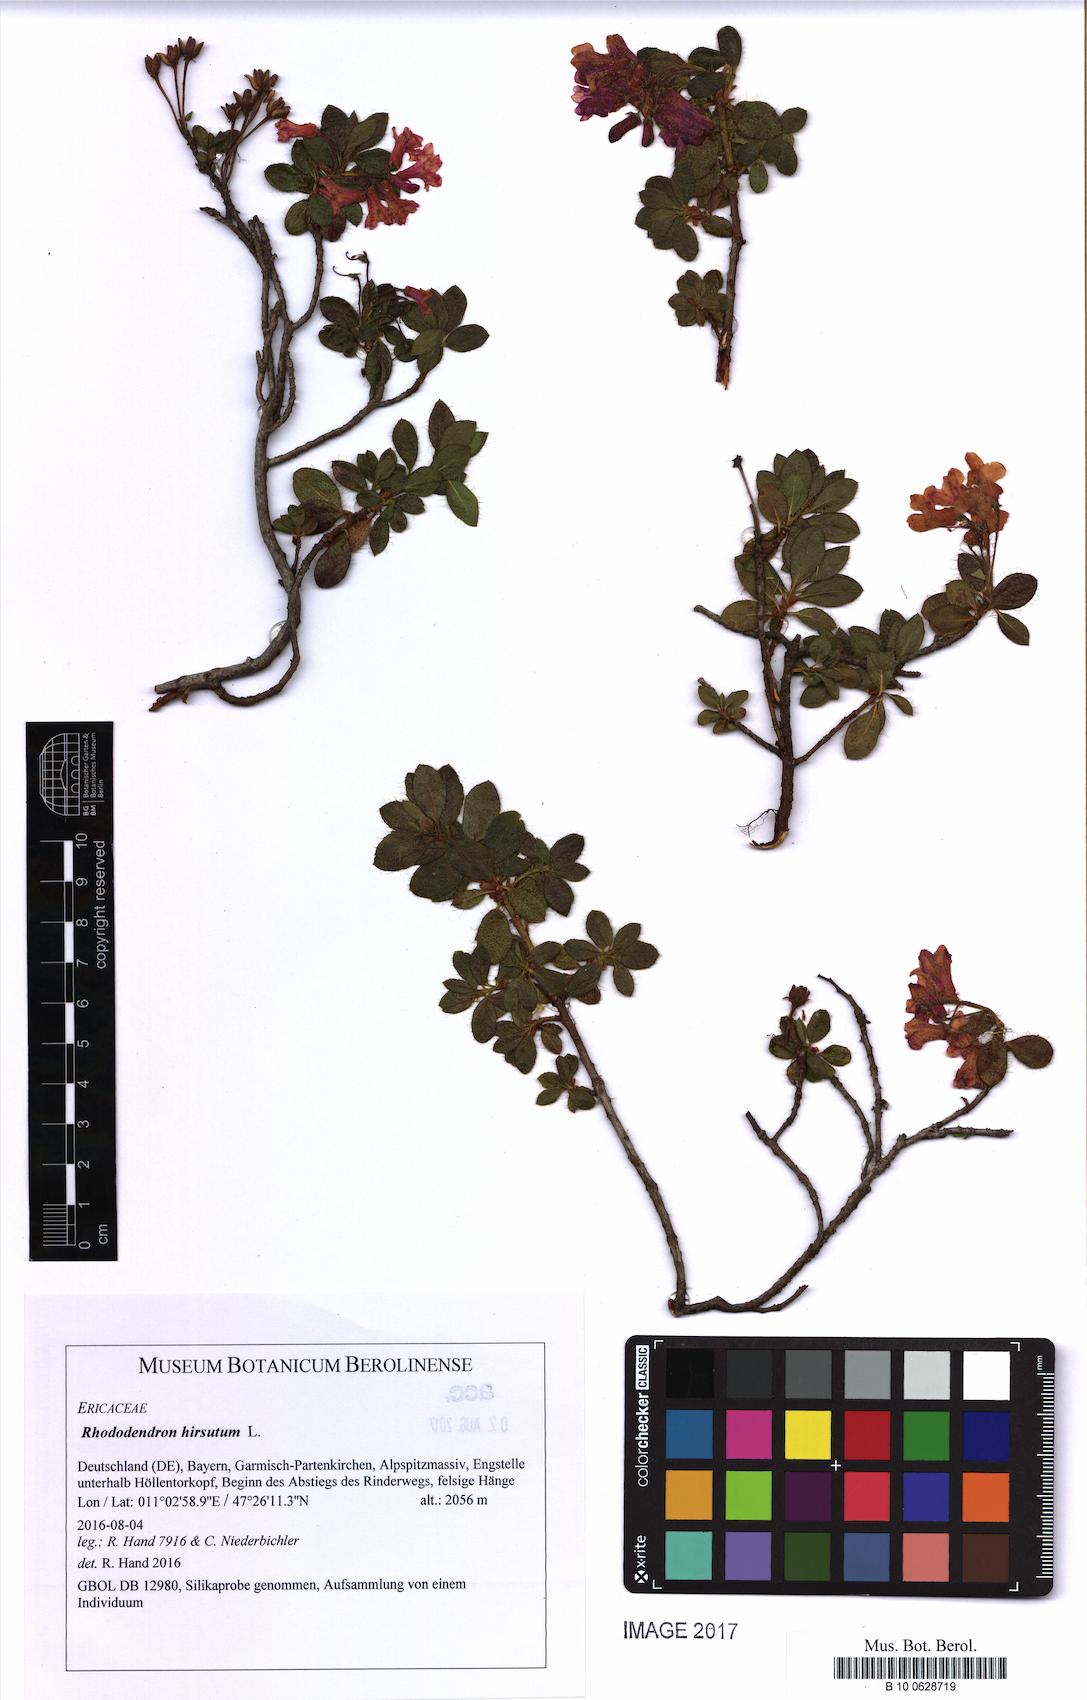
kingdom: Plantae
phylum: Tracheophyta
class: Magnoliopsida
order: Ericales
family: Ericaceae
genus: Rhododendron
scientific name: Rhododendron hirsutum
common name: Hairy alpenrose
